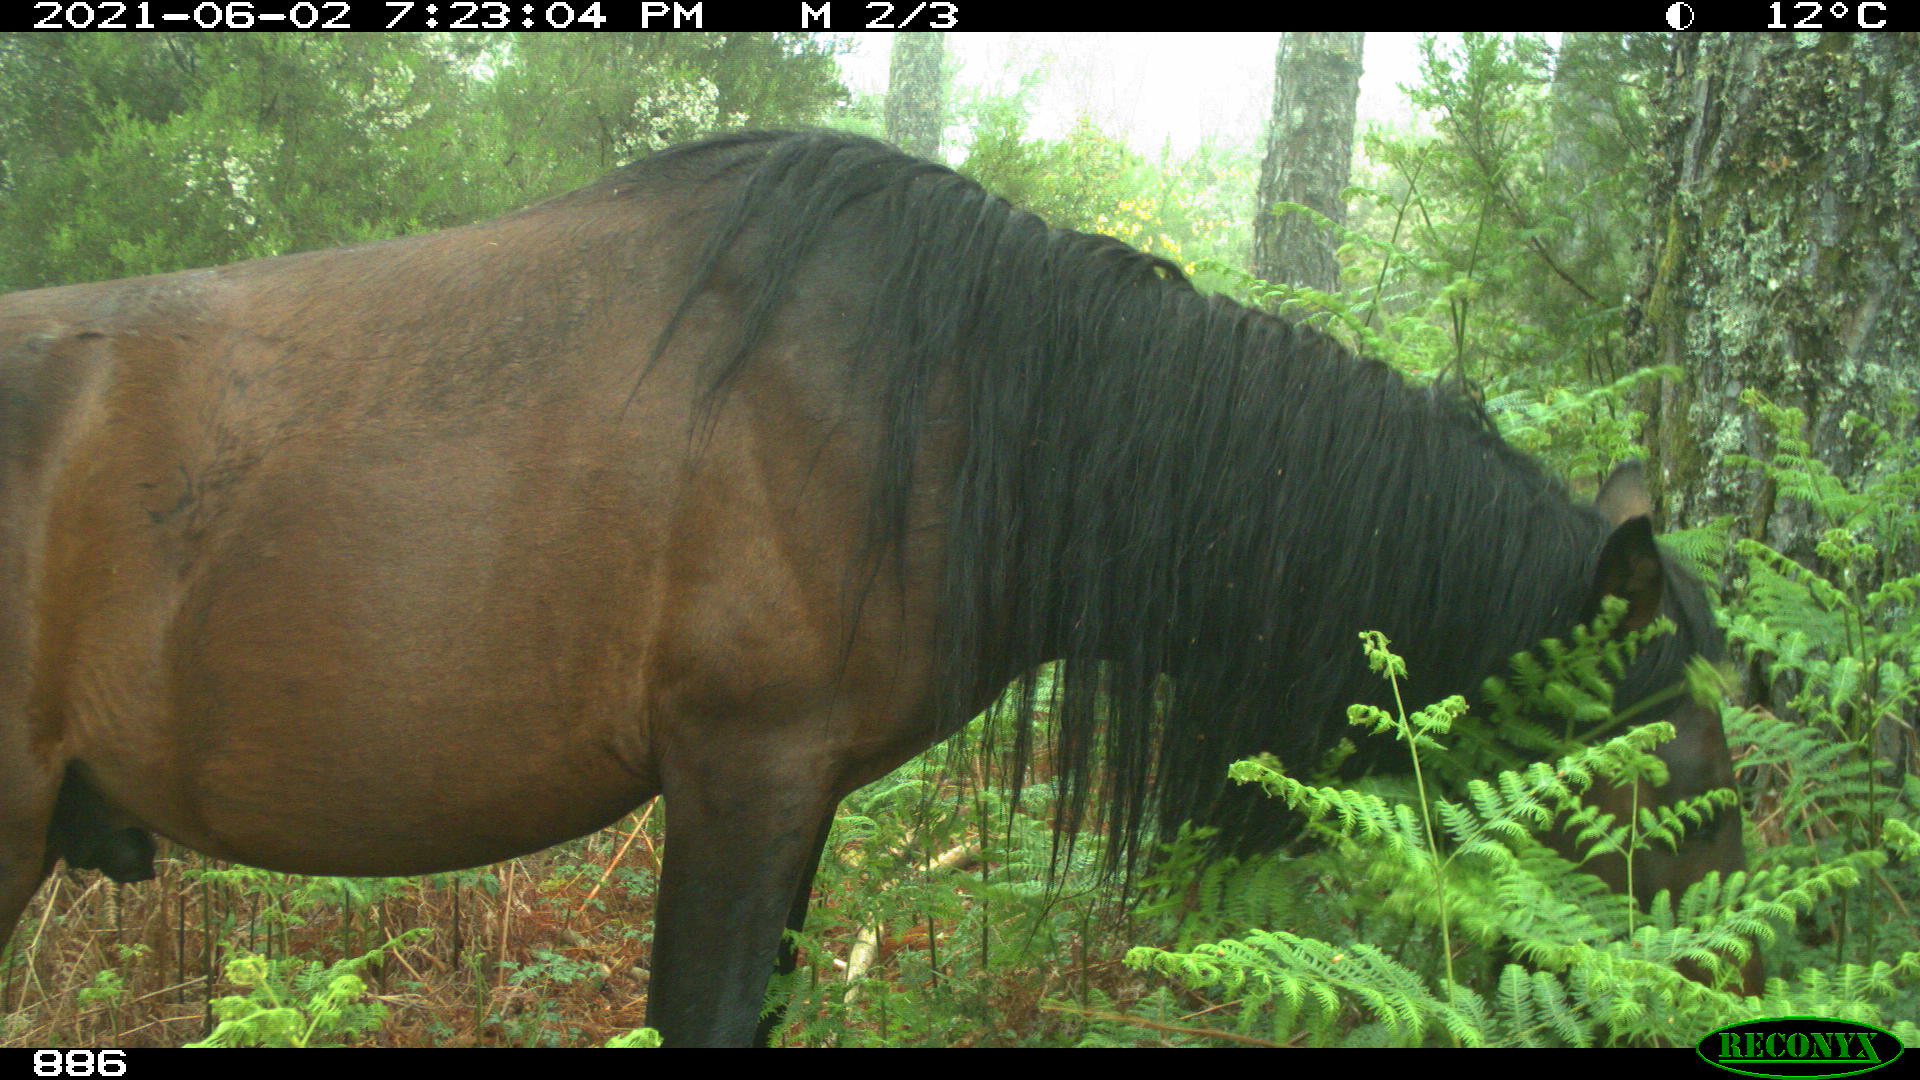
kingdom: Animalia
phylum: Chordata
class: Mammalia
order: Perissodactyla
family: Equidae
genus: Equus
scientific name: Equus caballus
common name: Horse
